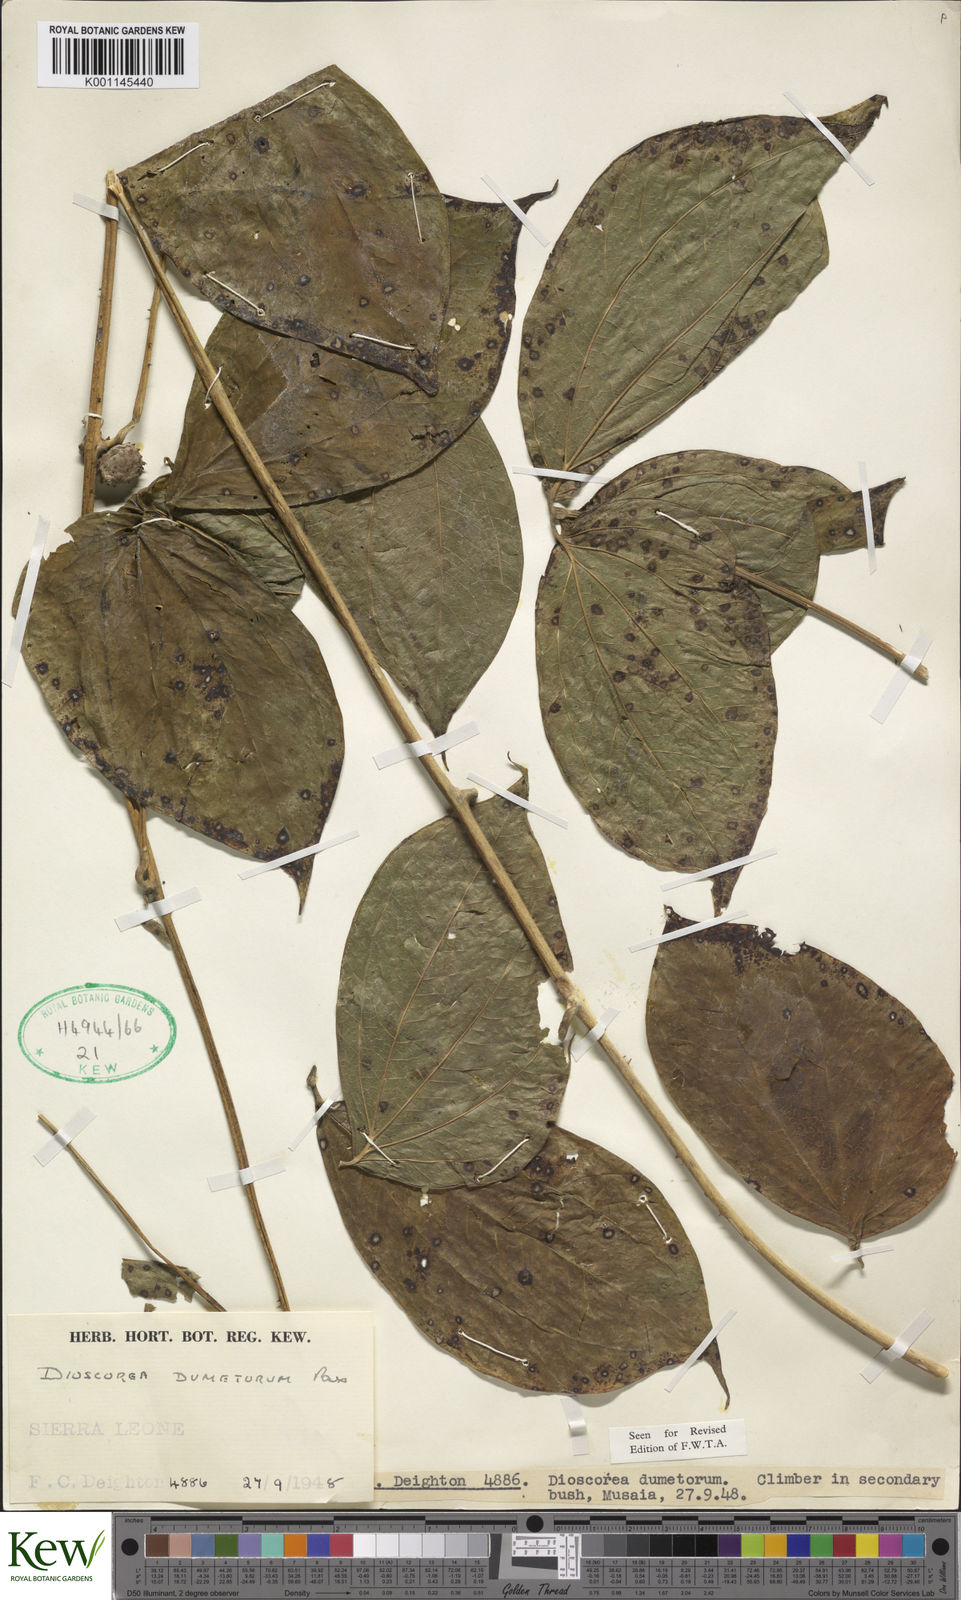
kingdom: Plantae
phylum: Tracheophyta
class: Liliopsida
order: Dioscoreales
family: Dioscoreaceae
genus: Dioscorea
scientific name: Dioscorea dumetorum
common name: African bitter yam
